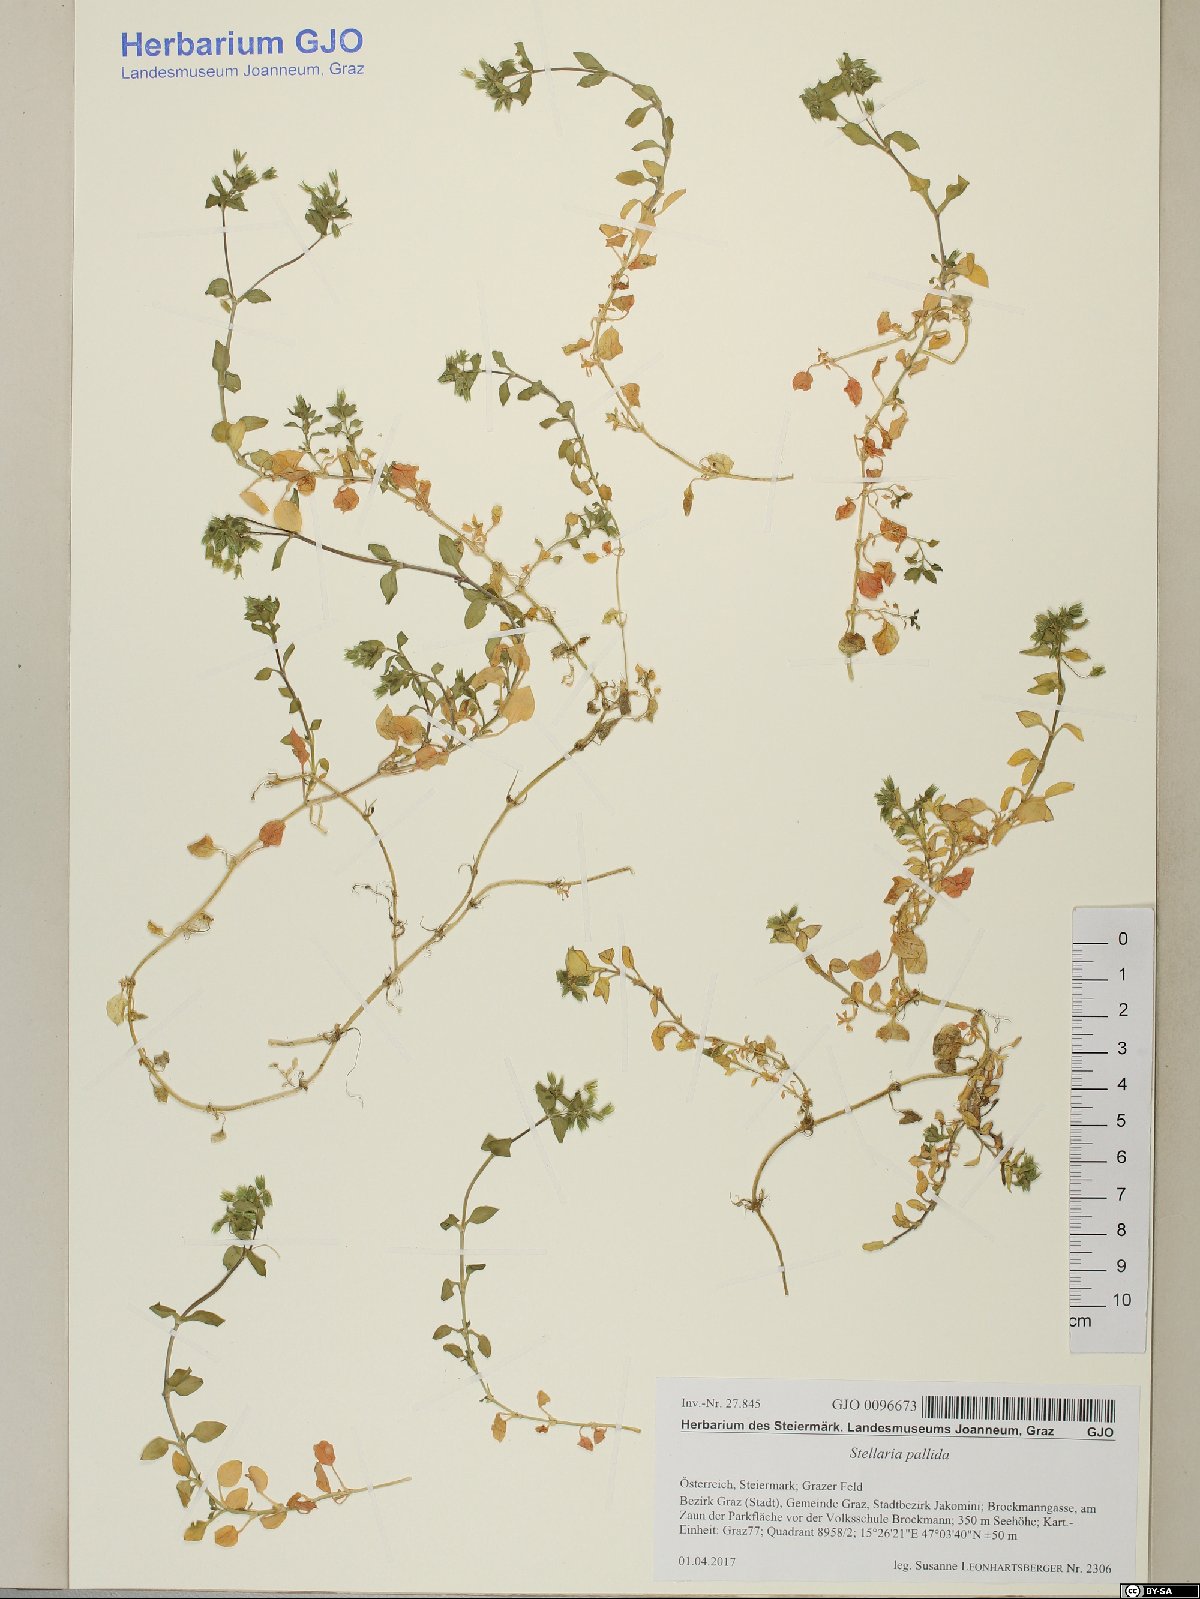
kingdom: Plantae
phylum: Tracheophyta
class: Magnoliopsida
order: Caryophyllales
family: Caryophyllaceae
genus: Stellaria
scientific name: Stellaria apetala
